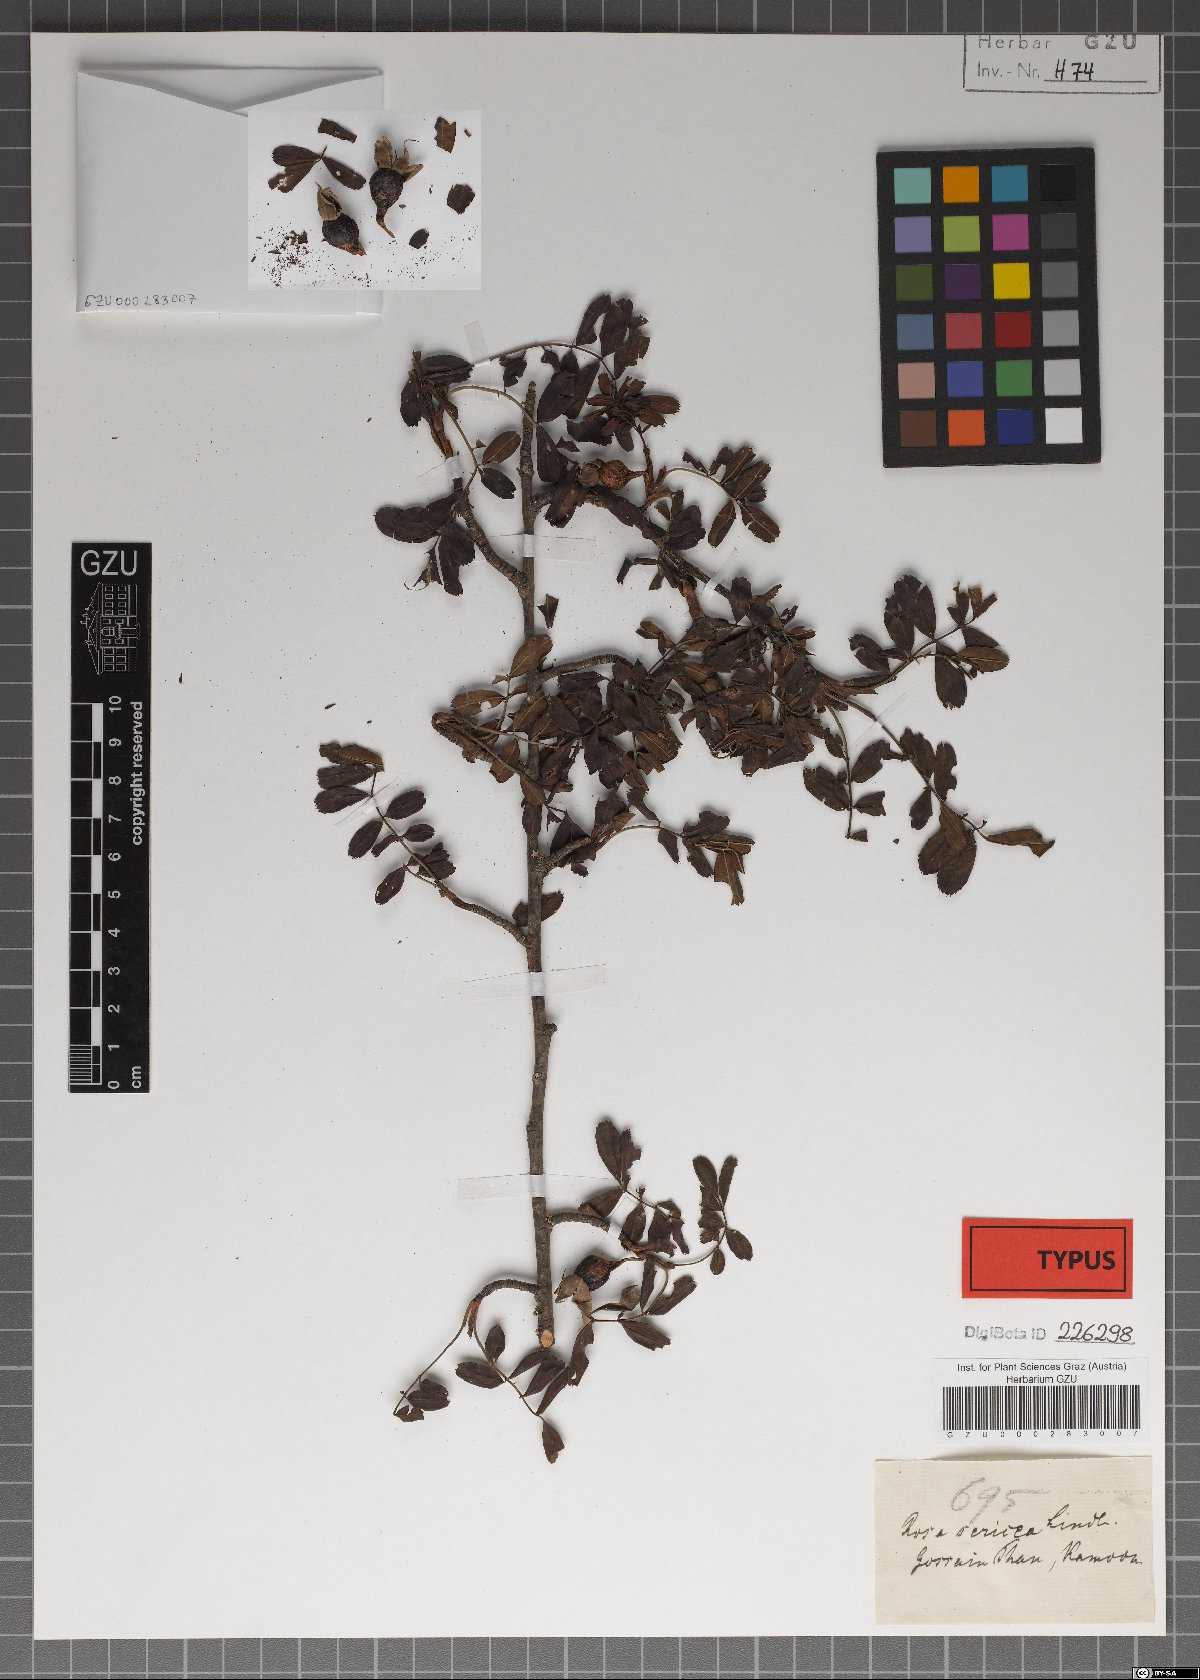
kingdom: Plantae
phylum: Tracheophyta
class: Magnoliopsida
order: Rosales
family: Rosaceae
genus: Rosa
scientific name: Rosa sericea
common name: Silky rose
